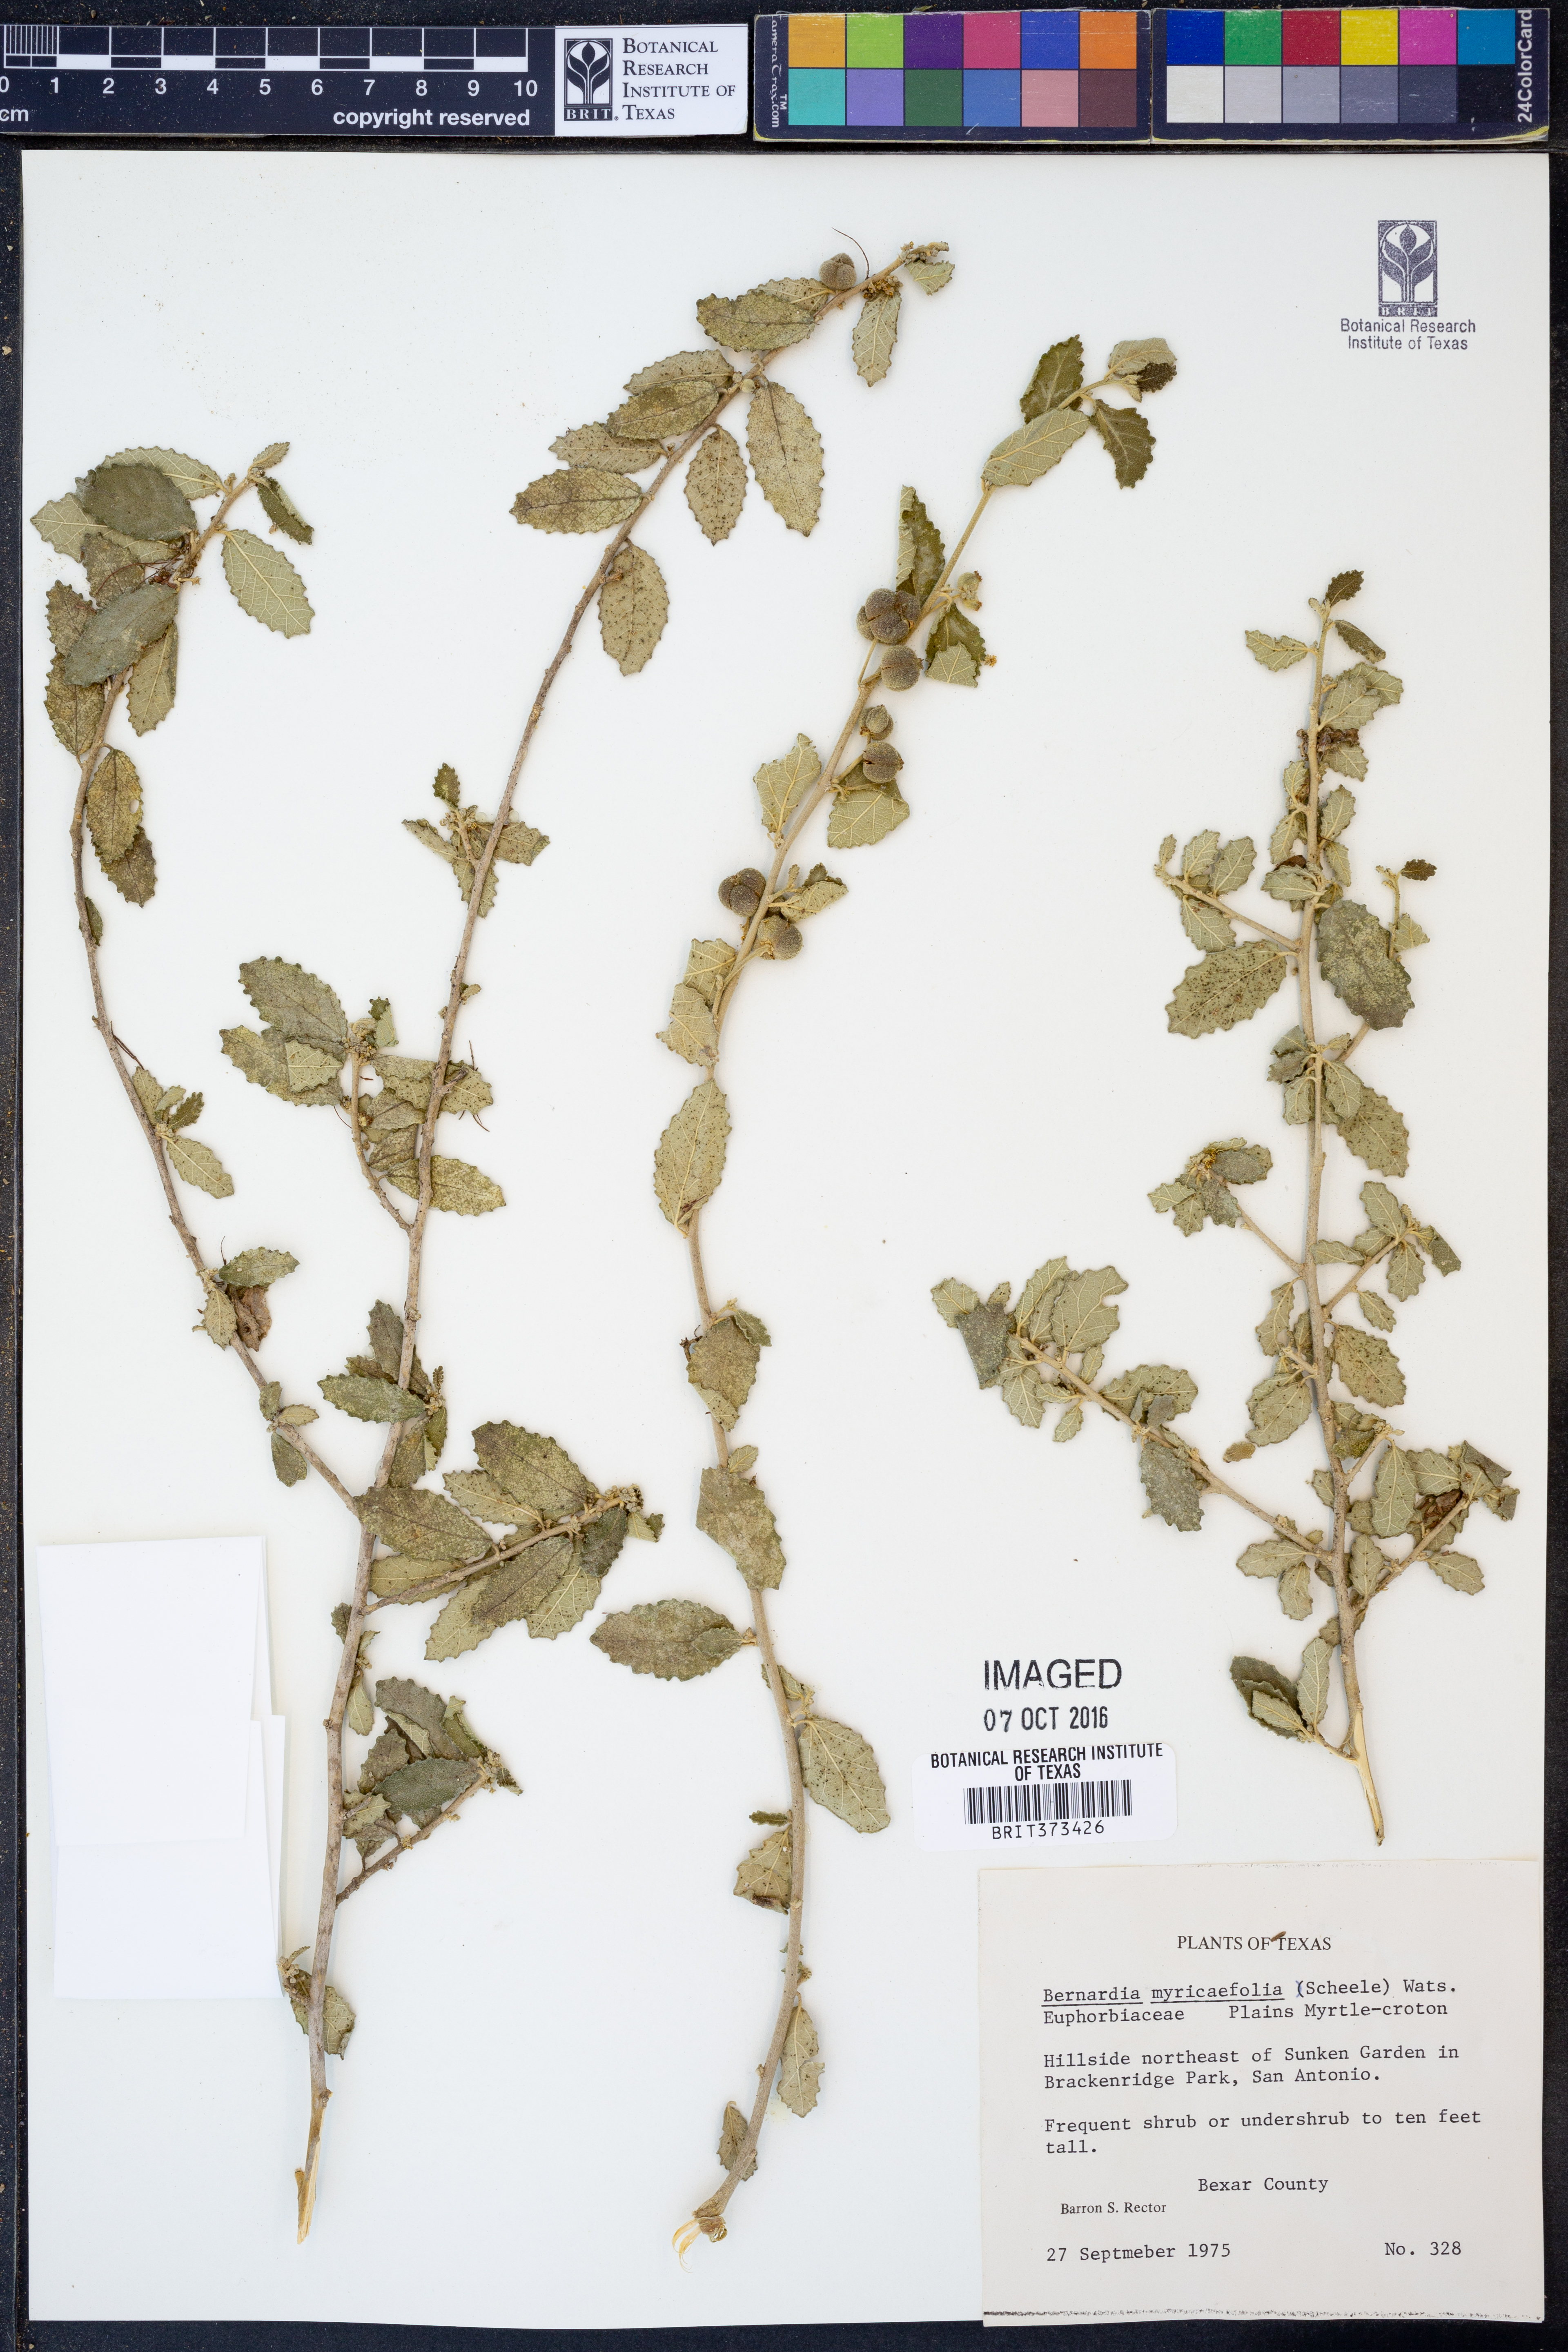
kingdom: Plantae
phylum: Tracheophyta
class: Magnoliopsida
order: Malpighiales
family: Euphorbiaceae
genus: Bernardia
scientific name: Bernardia myricifolia
